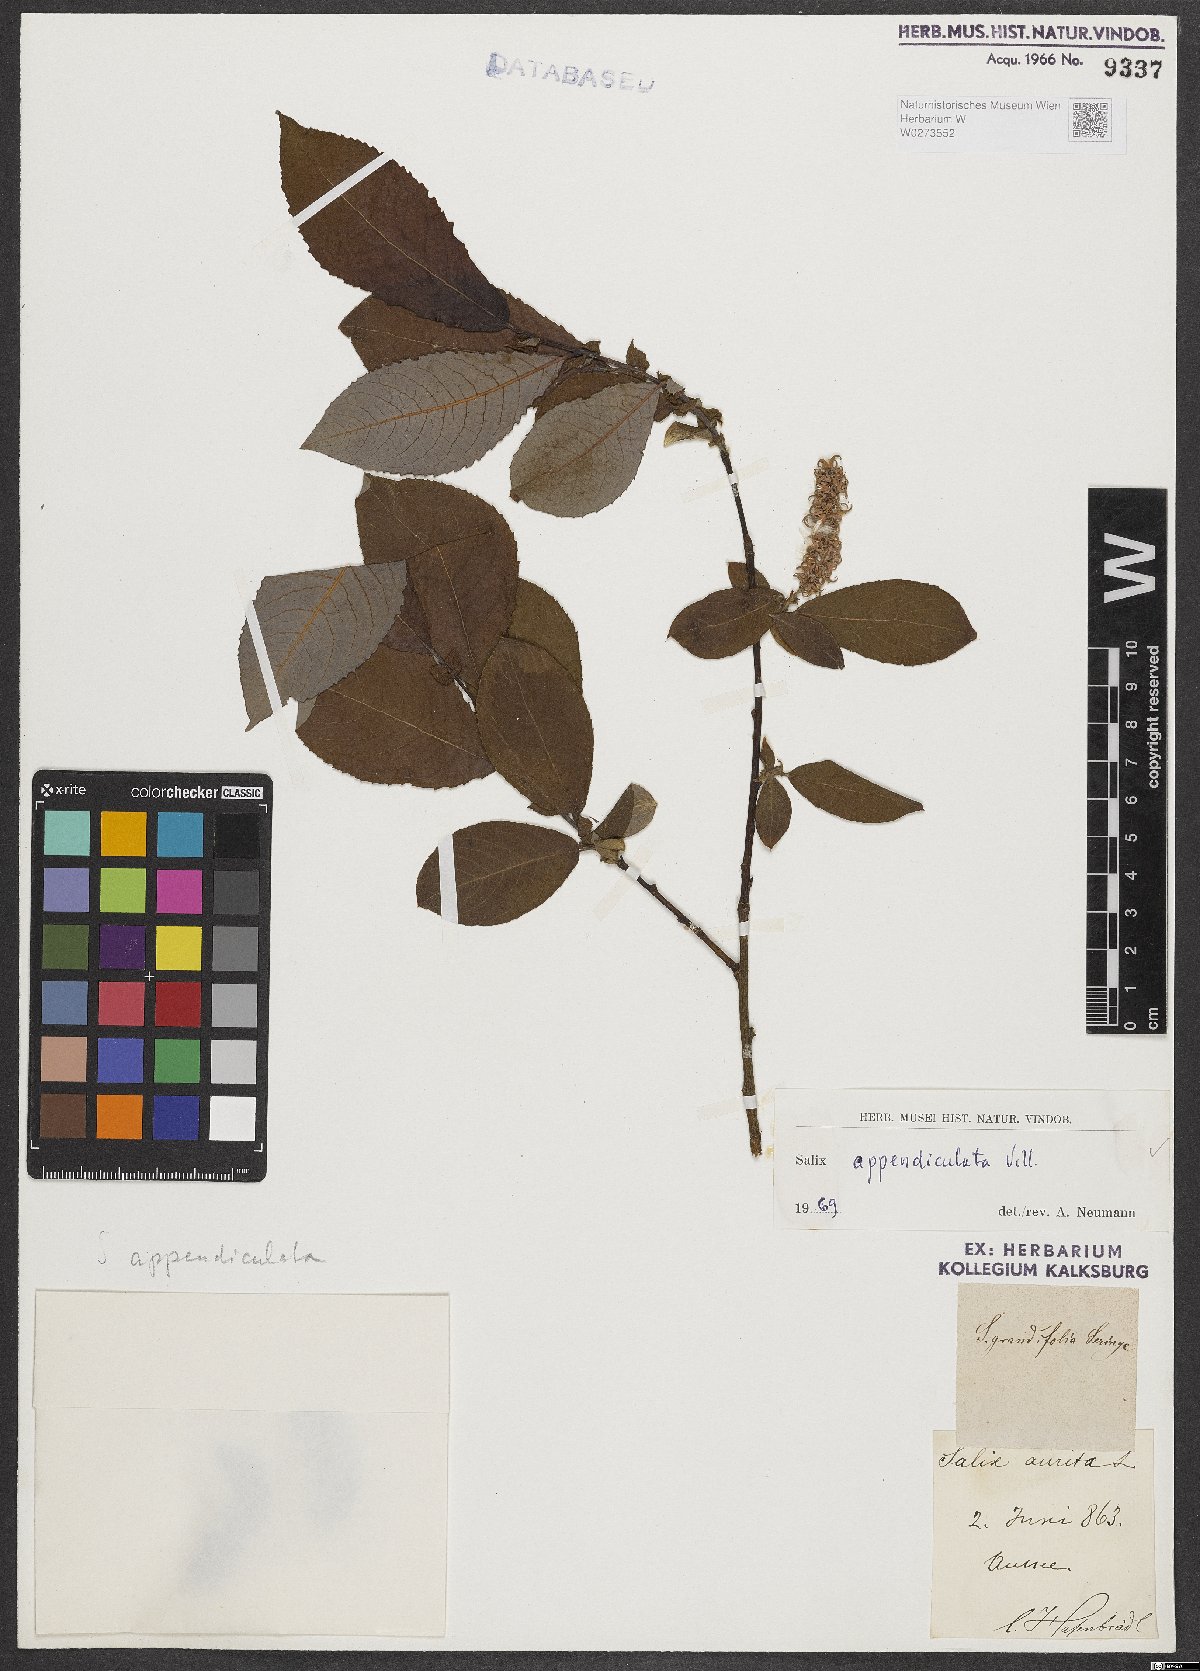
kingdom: Plantae
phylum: Tracheophyta
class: Magnoliopsida
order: Malpighiales
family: Salicaceae
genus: Salix
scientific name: Salix appendiculata
